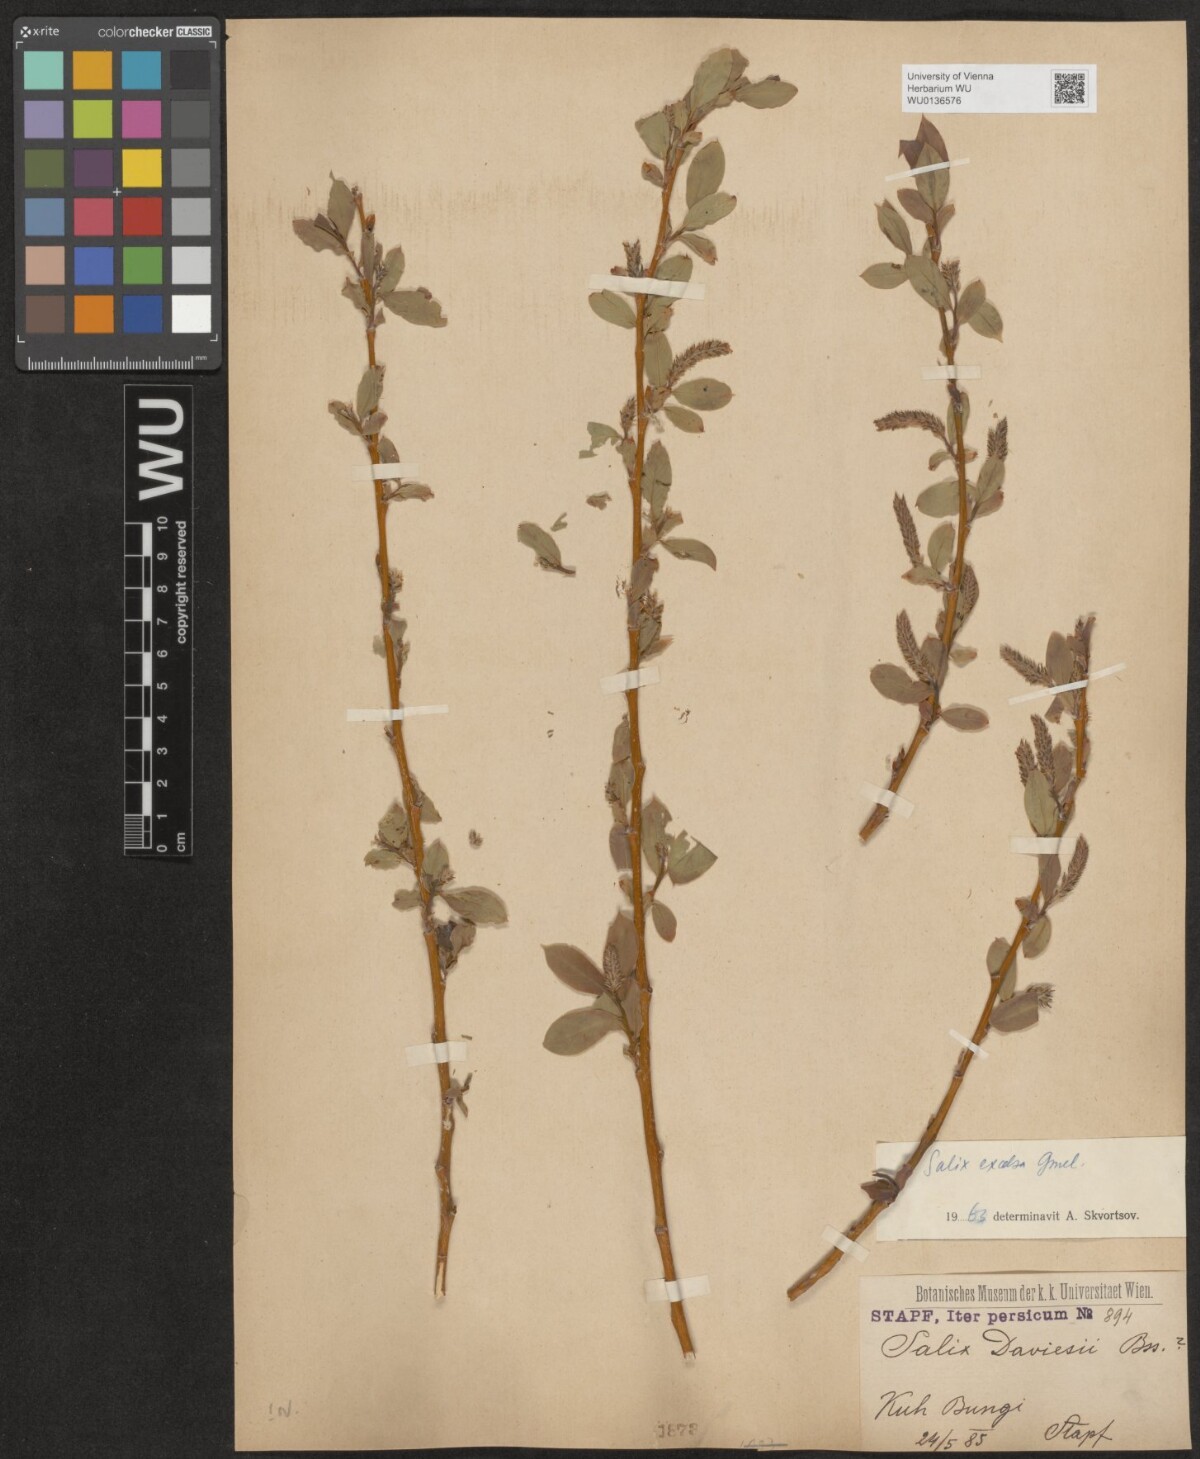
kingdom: Plantae
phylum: Tracheophyta
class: Magnoliopsida
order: Malpighiales
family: Salicaceae
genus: Salix
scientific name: Salix excelsa
